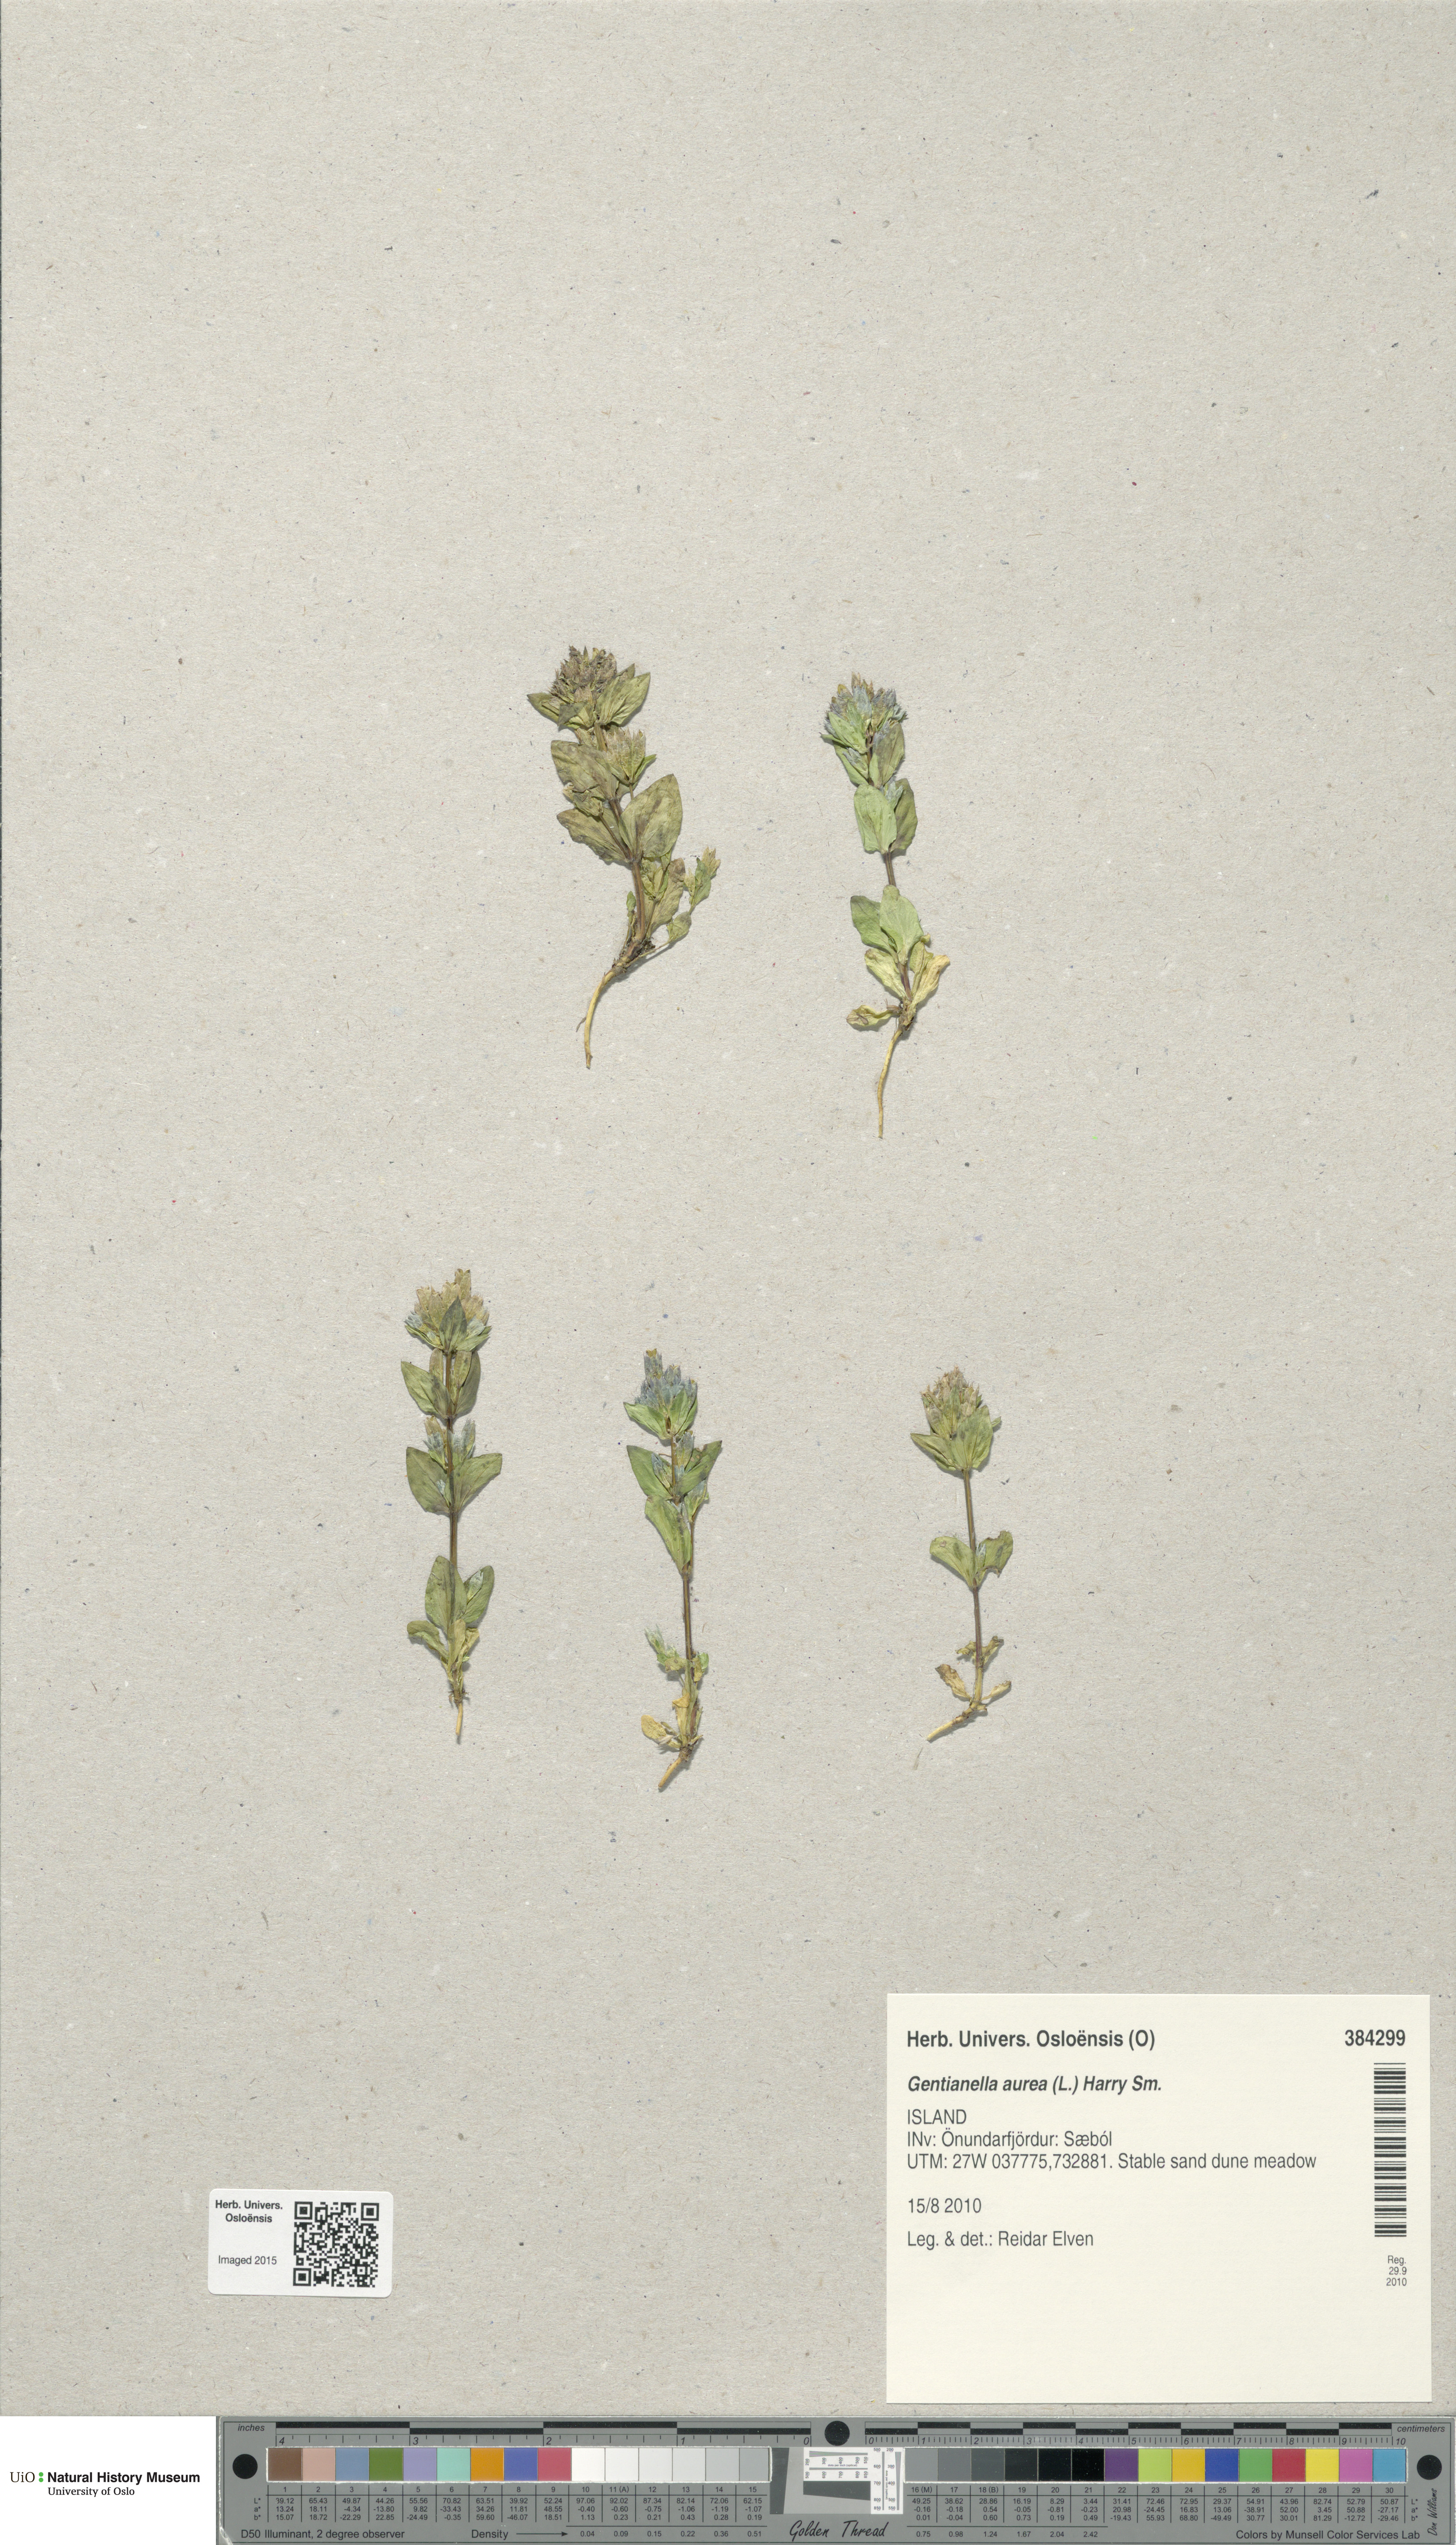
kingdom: Plantae
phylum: Tracheophyta
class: Magnoliopsida
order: Gentianales
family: Gentianaceae
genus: Gentianella
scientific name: Gentianella aurea
